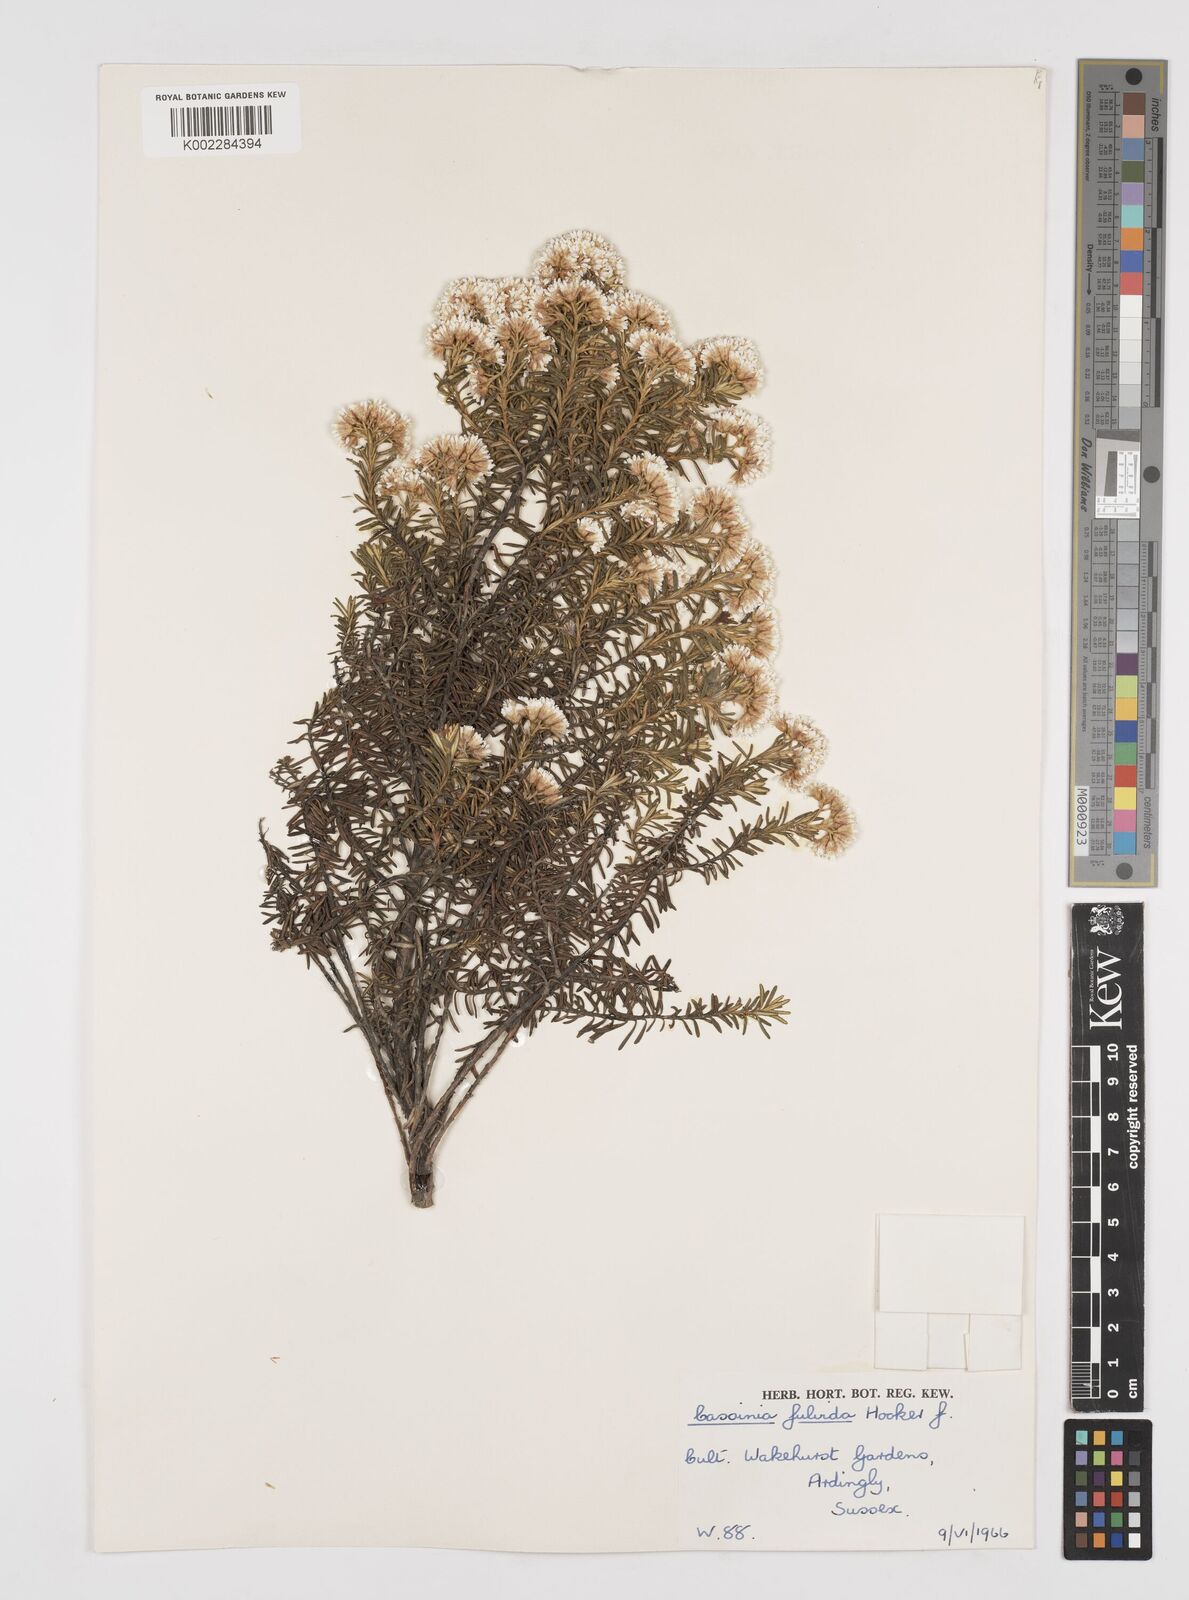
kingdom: Plantae
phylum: Tracheophyta
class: Magnoliopsida
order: Asterales
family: Asteraceae
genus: Ozothamnus
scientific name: Ozothamnus leptophyllus
